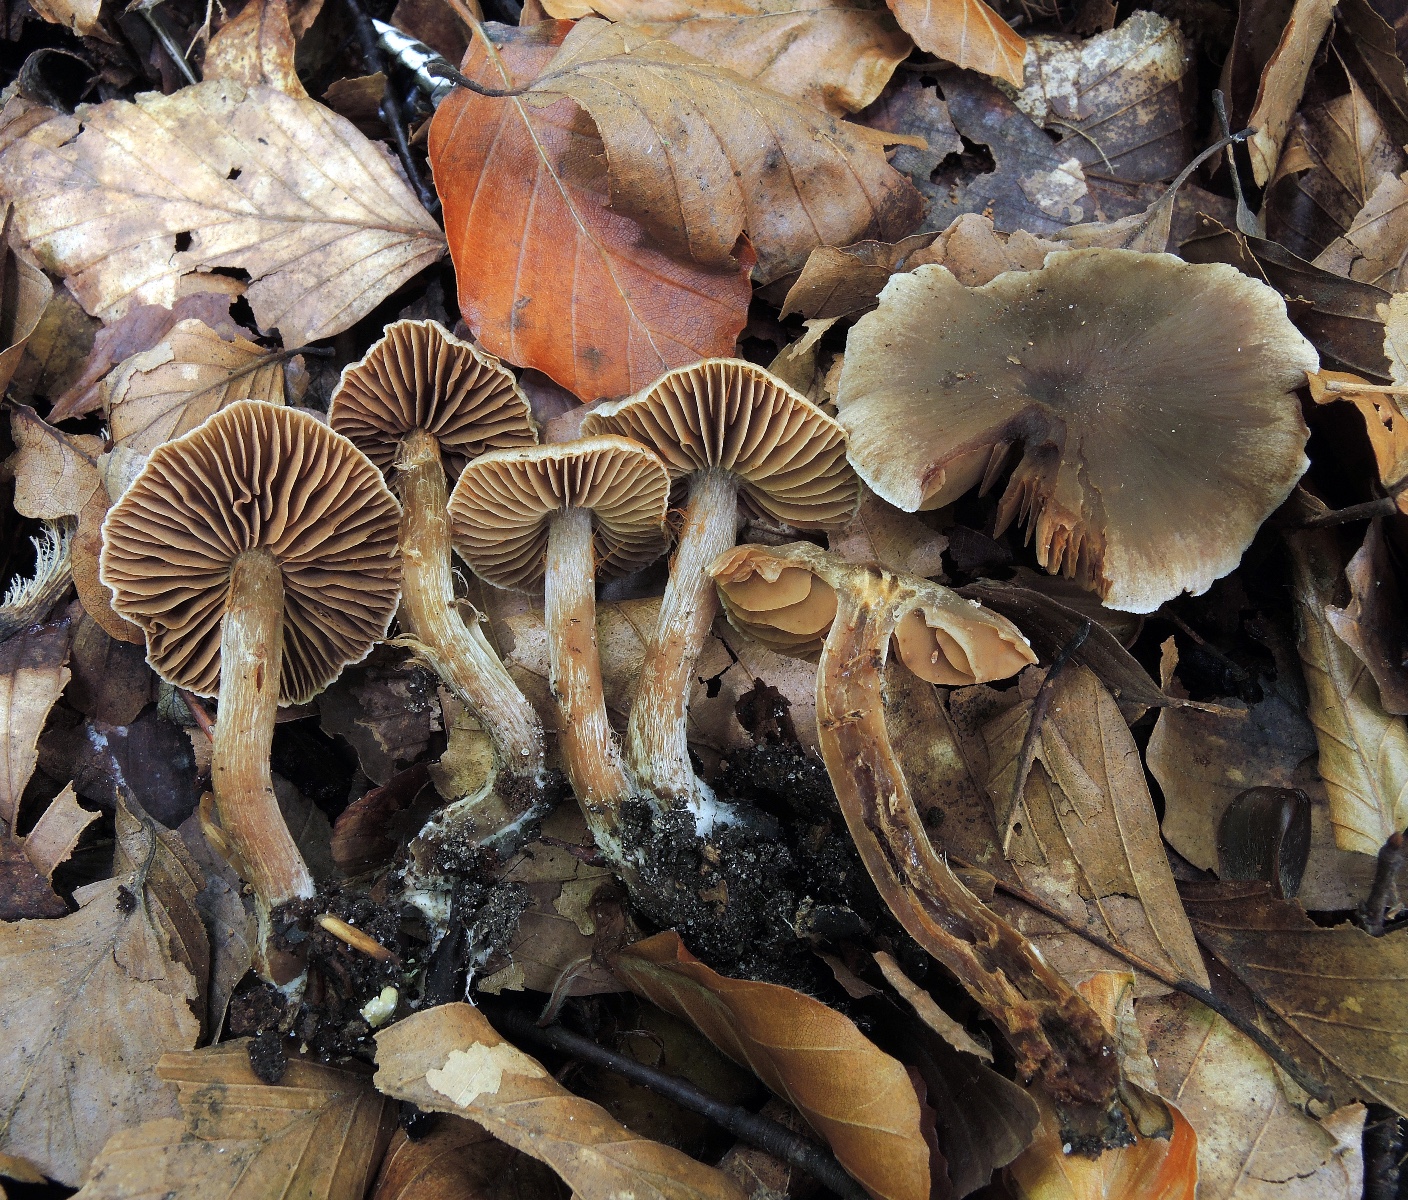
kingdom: Fungi
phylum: Basidiomycota
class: Agaricomycetes
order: Agaricales
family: Cortinariaceae
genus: Cortinarius
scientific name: Cortinarius
